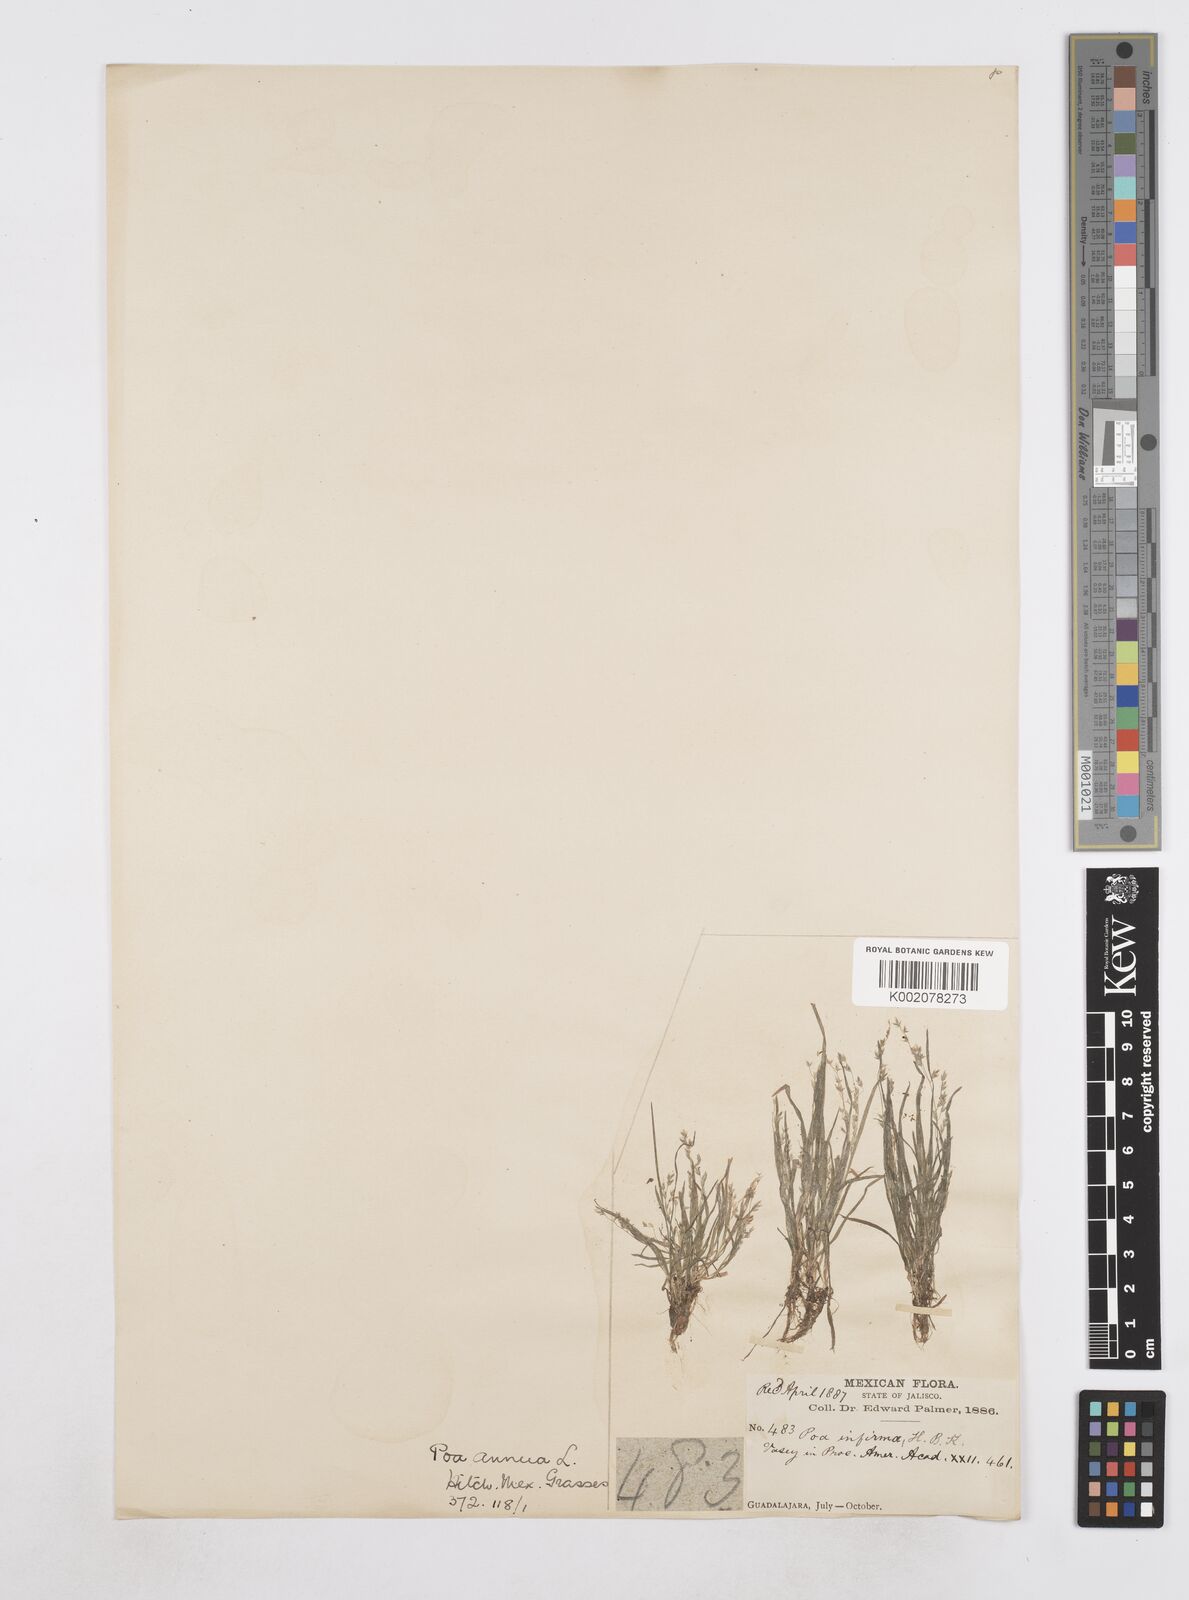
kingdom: Plantae
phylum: Tracheophyta
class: Liliopsida
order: Poales
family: Poaceae
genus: Poa
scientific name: Poa annua
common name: Annual bluegrass
